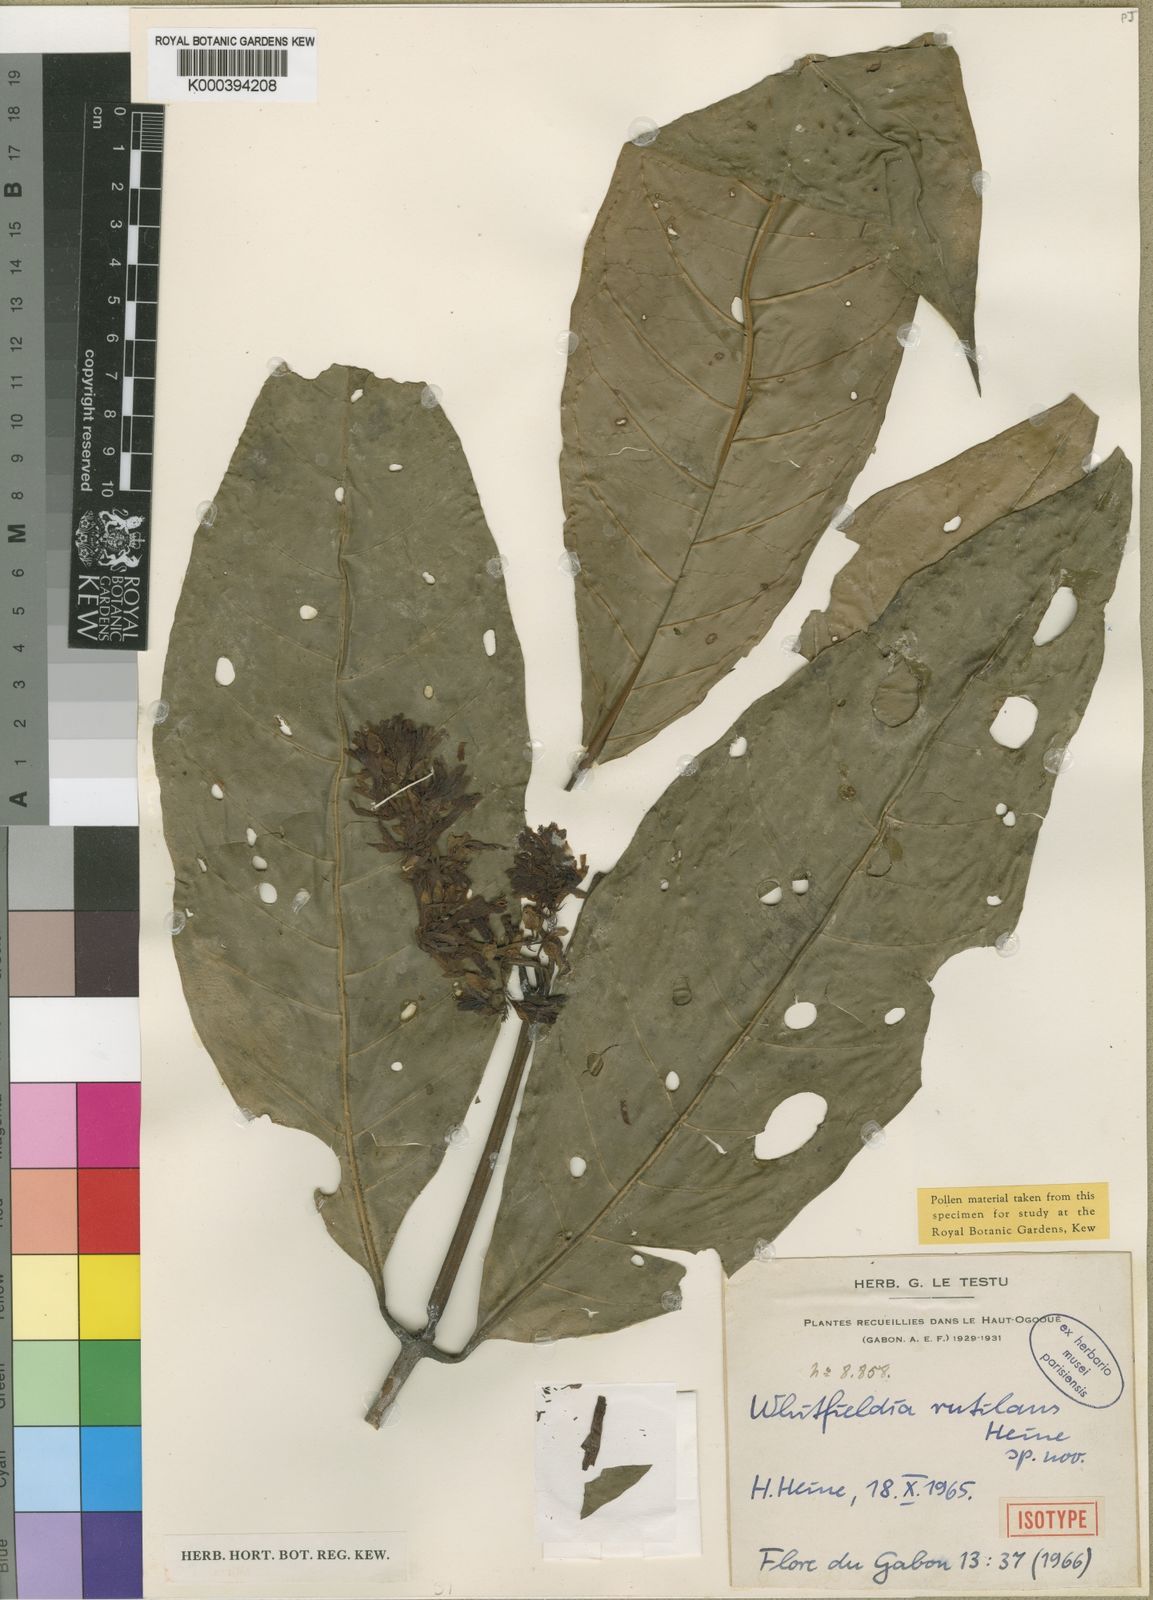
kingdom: Plantae
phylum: Tracheophyta
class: Magnoliopsida
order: Lamiales
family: Acanthaceae
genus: Whitfieldia
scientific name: Whitfieldia rutilans
